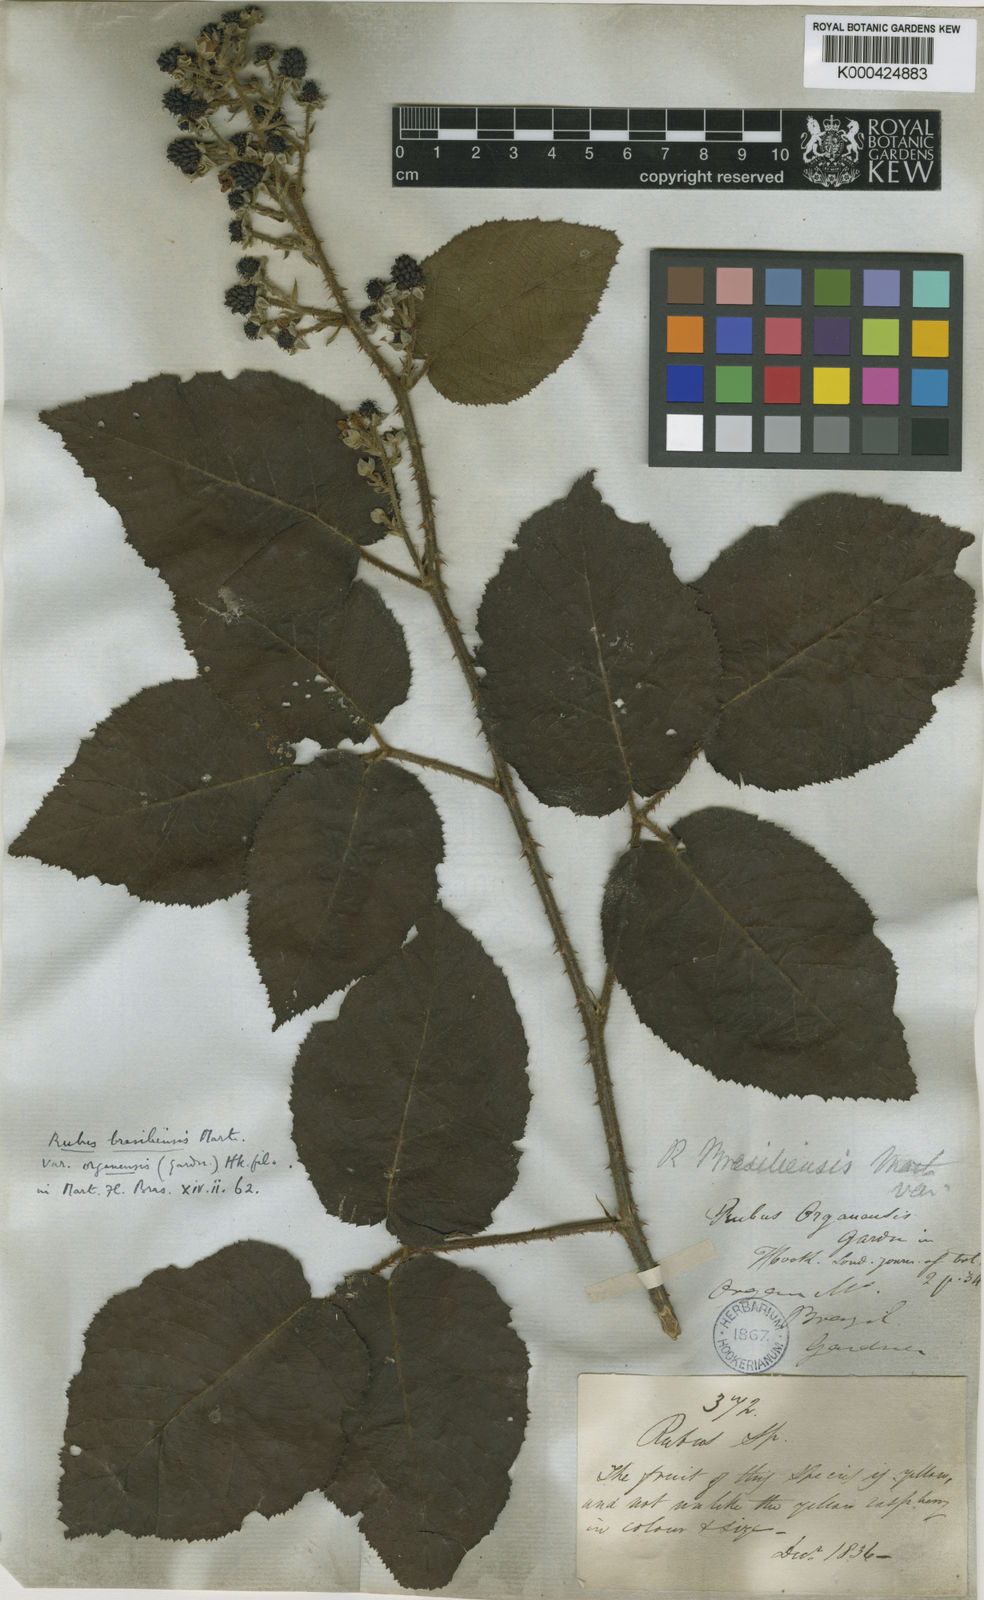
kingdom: Plantae
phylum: Tracheophyta
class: Magnoliopsida
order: Rosales
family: Rosaceae
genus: Rubus
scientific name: Rubus brasiliensis
